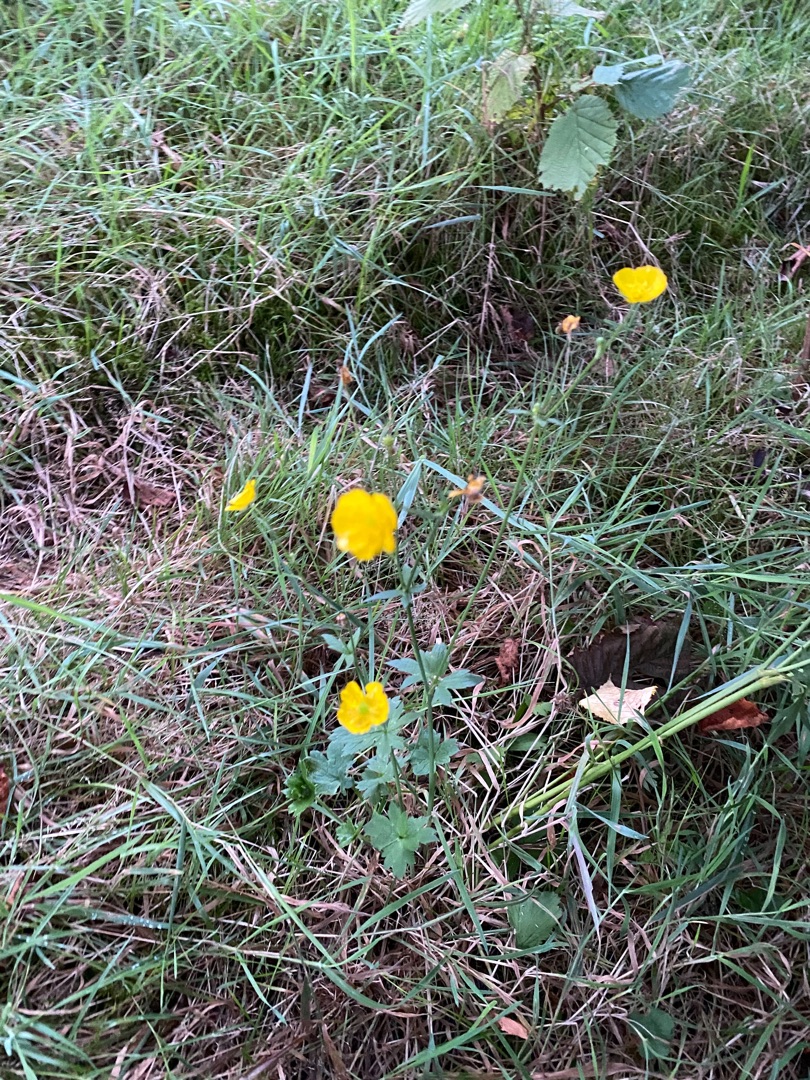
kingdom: Plantae
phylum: Tracheophyta
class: Magnoliopsida
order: Ranunculales
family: Ranunculaceae
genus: Ranunculus
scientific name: Ranunculus acris
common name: Bidende ranunkel
